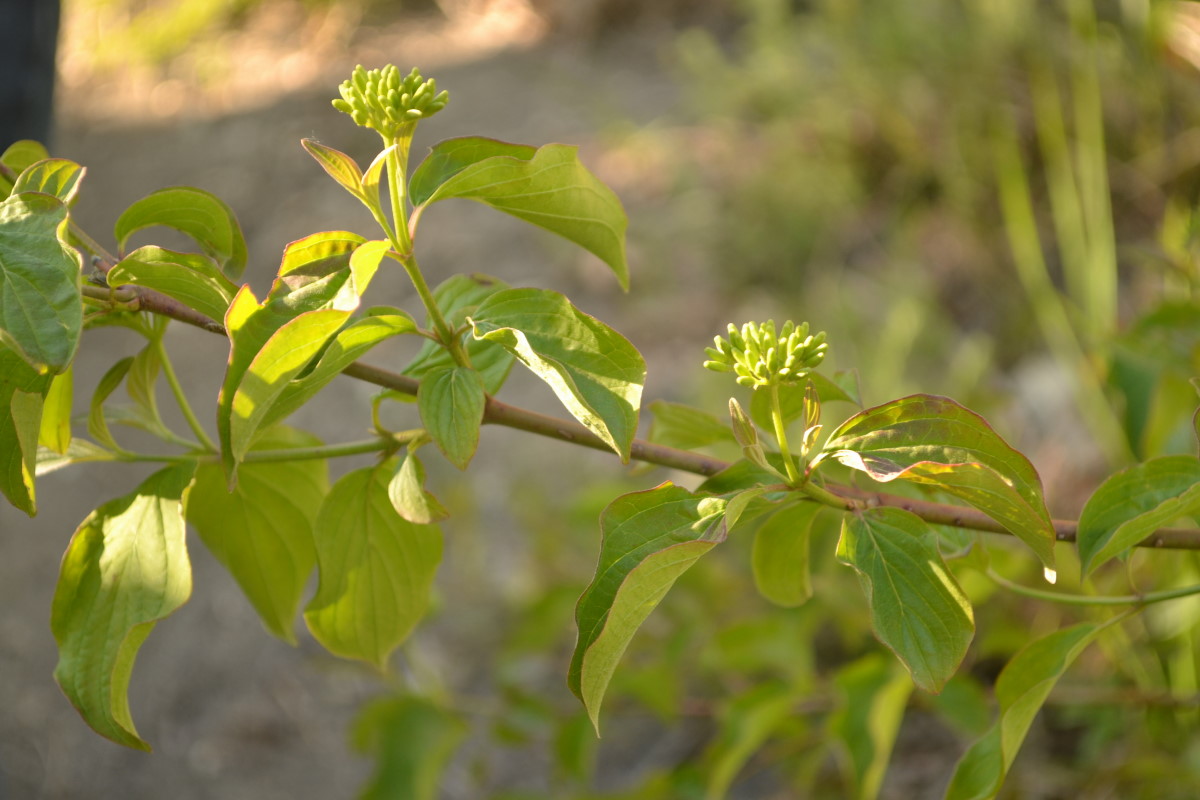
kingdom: Plantae
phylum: Tracheophyta
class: Magnoliopsida
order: Cornales
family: Cornaceae
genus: Cornus
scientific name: Cornus mas
